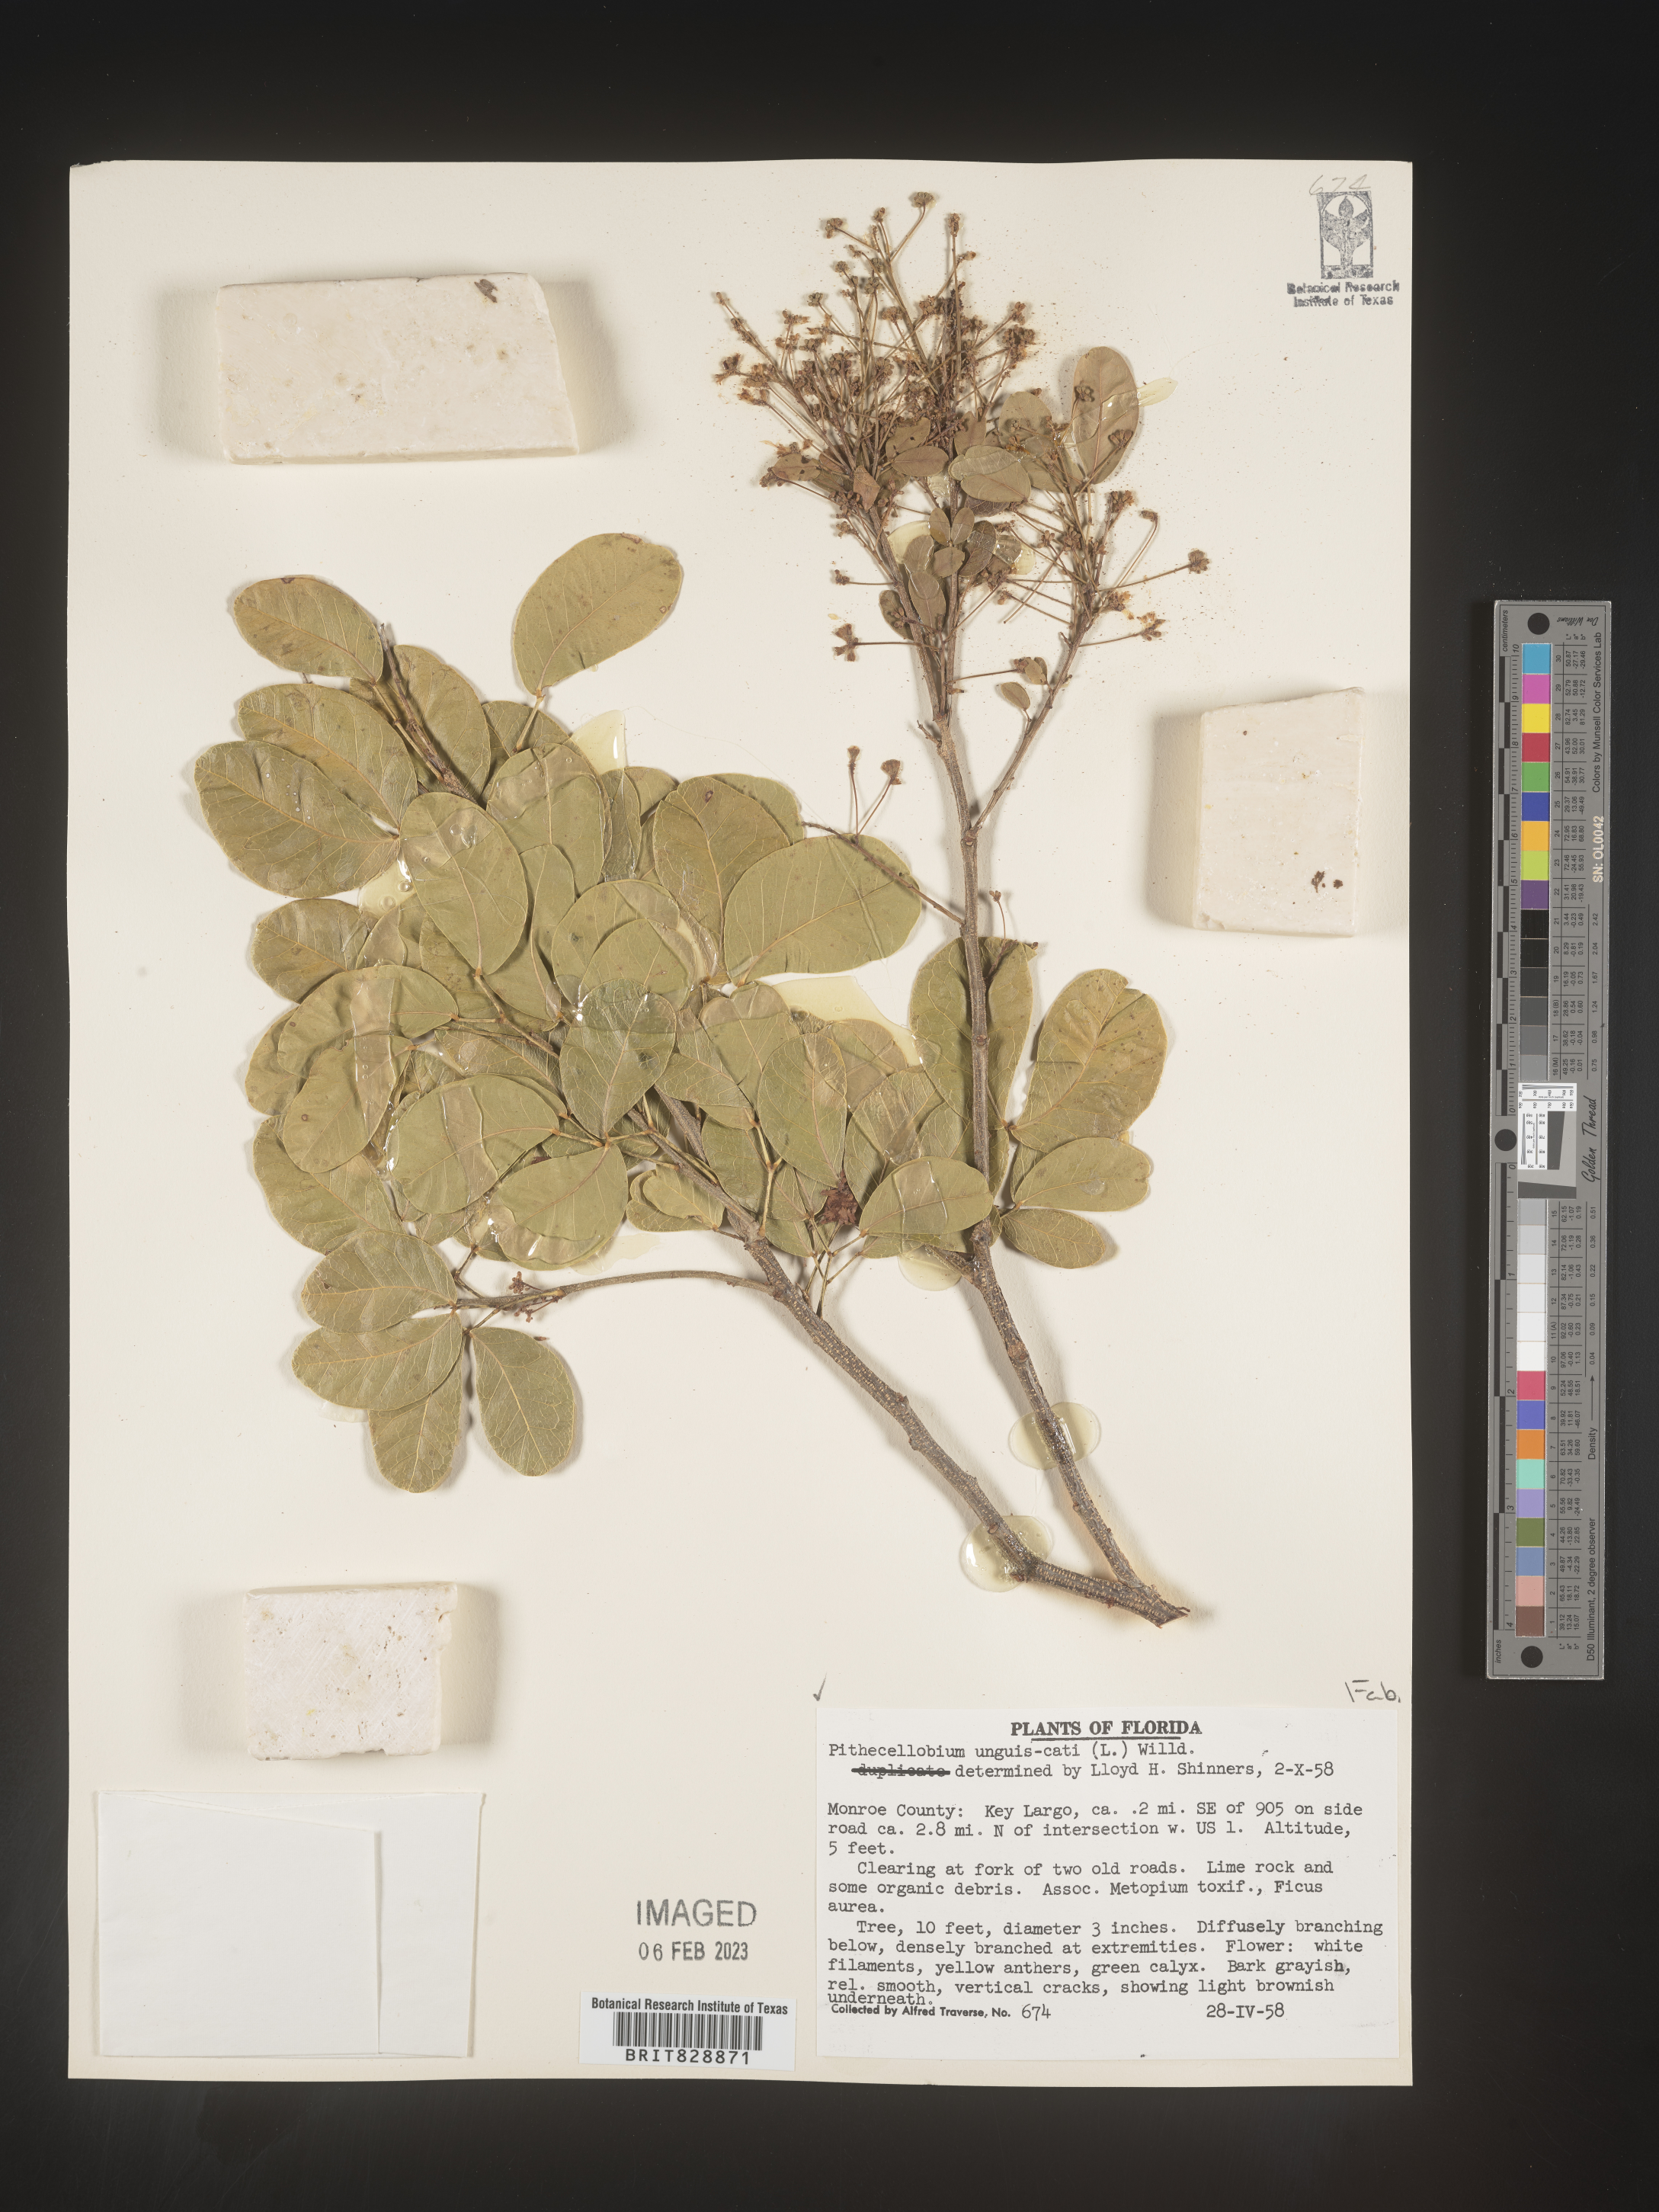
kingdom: Plantae
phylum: Tracheophyta
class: Magnoliopsida
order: Fabales
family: Fabaceae
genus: Pithecellobium
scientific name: Pithecellobium
